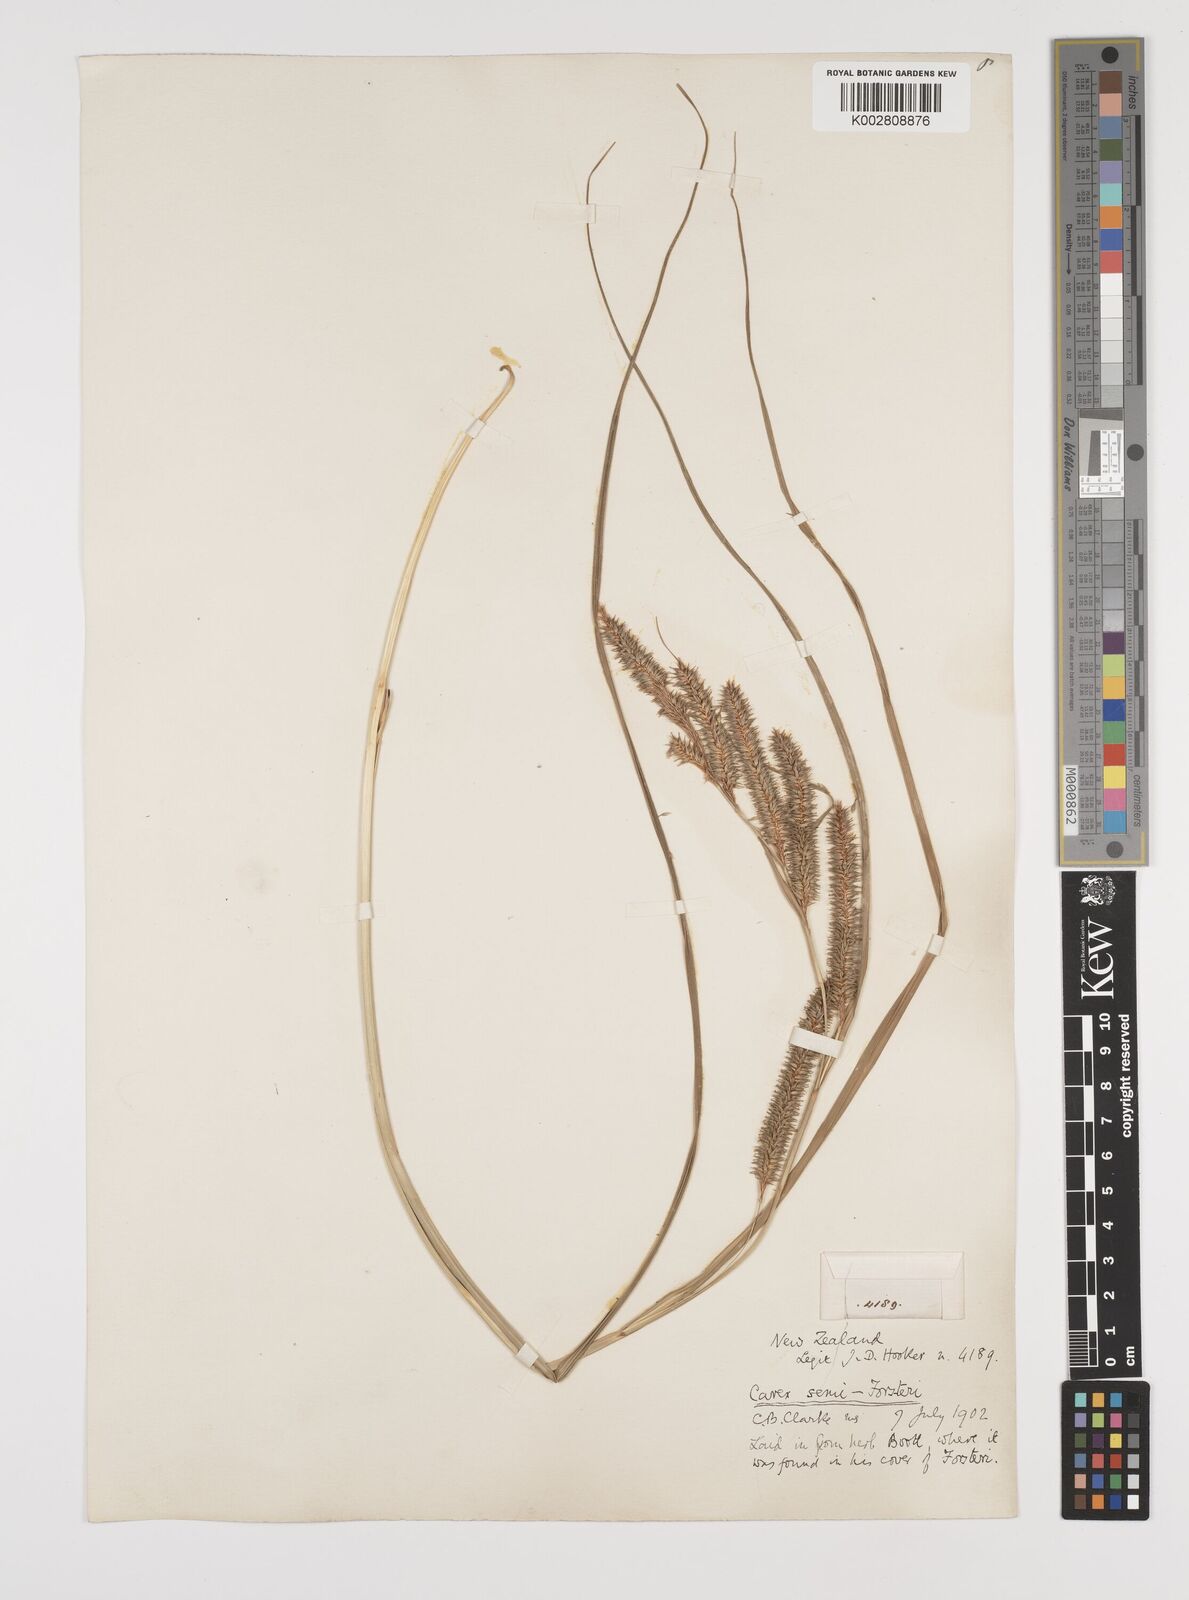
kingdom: Plantae
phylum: Tracheophyta
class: Liliopsida
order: Poales
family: Cyperaceae
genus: Carex
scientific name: Carex forsteri
